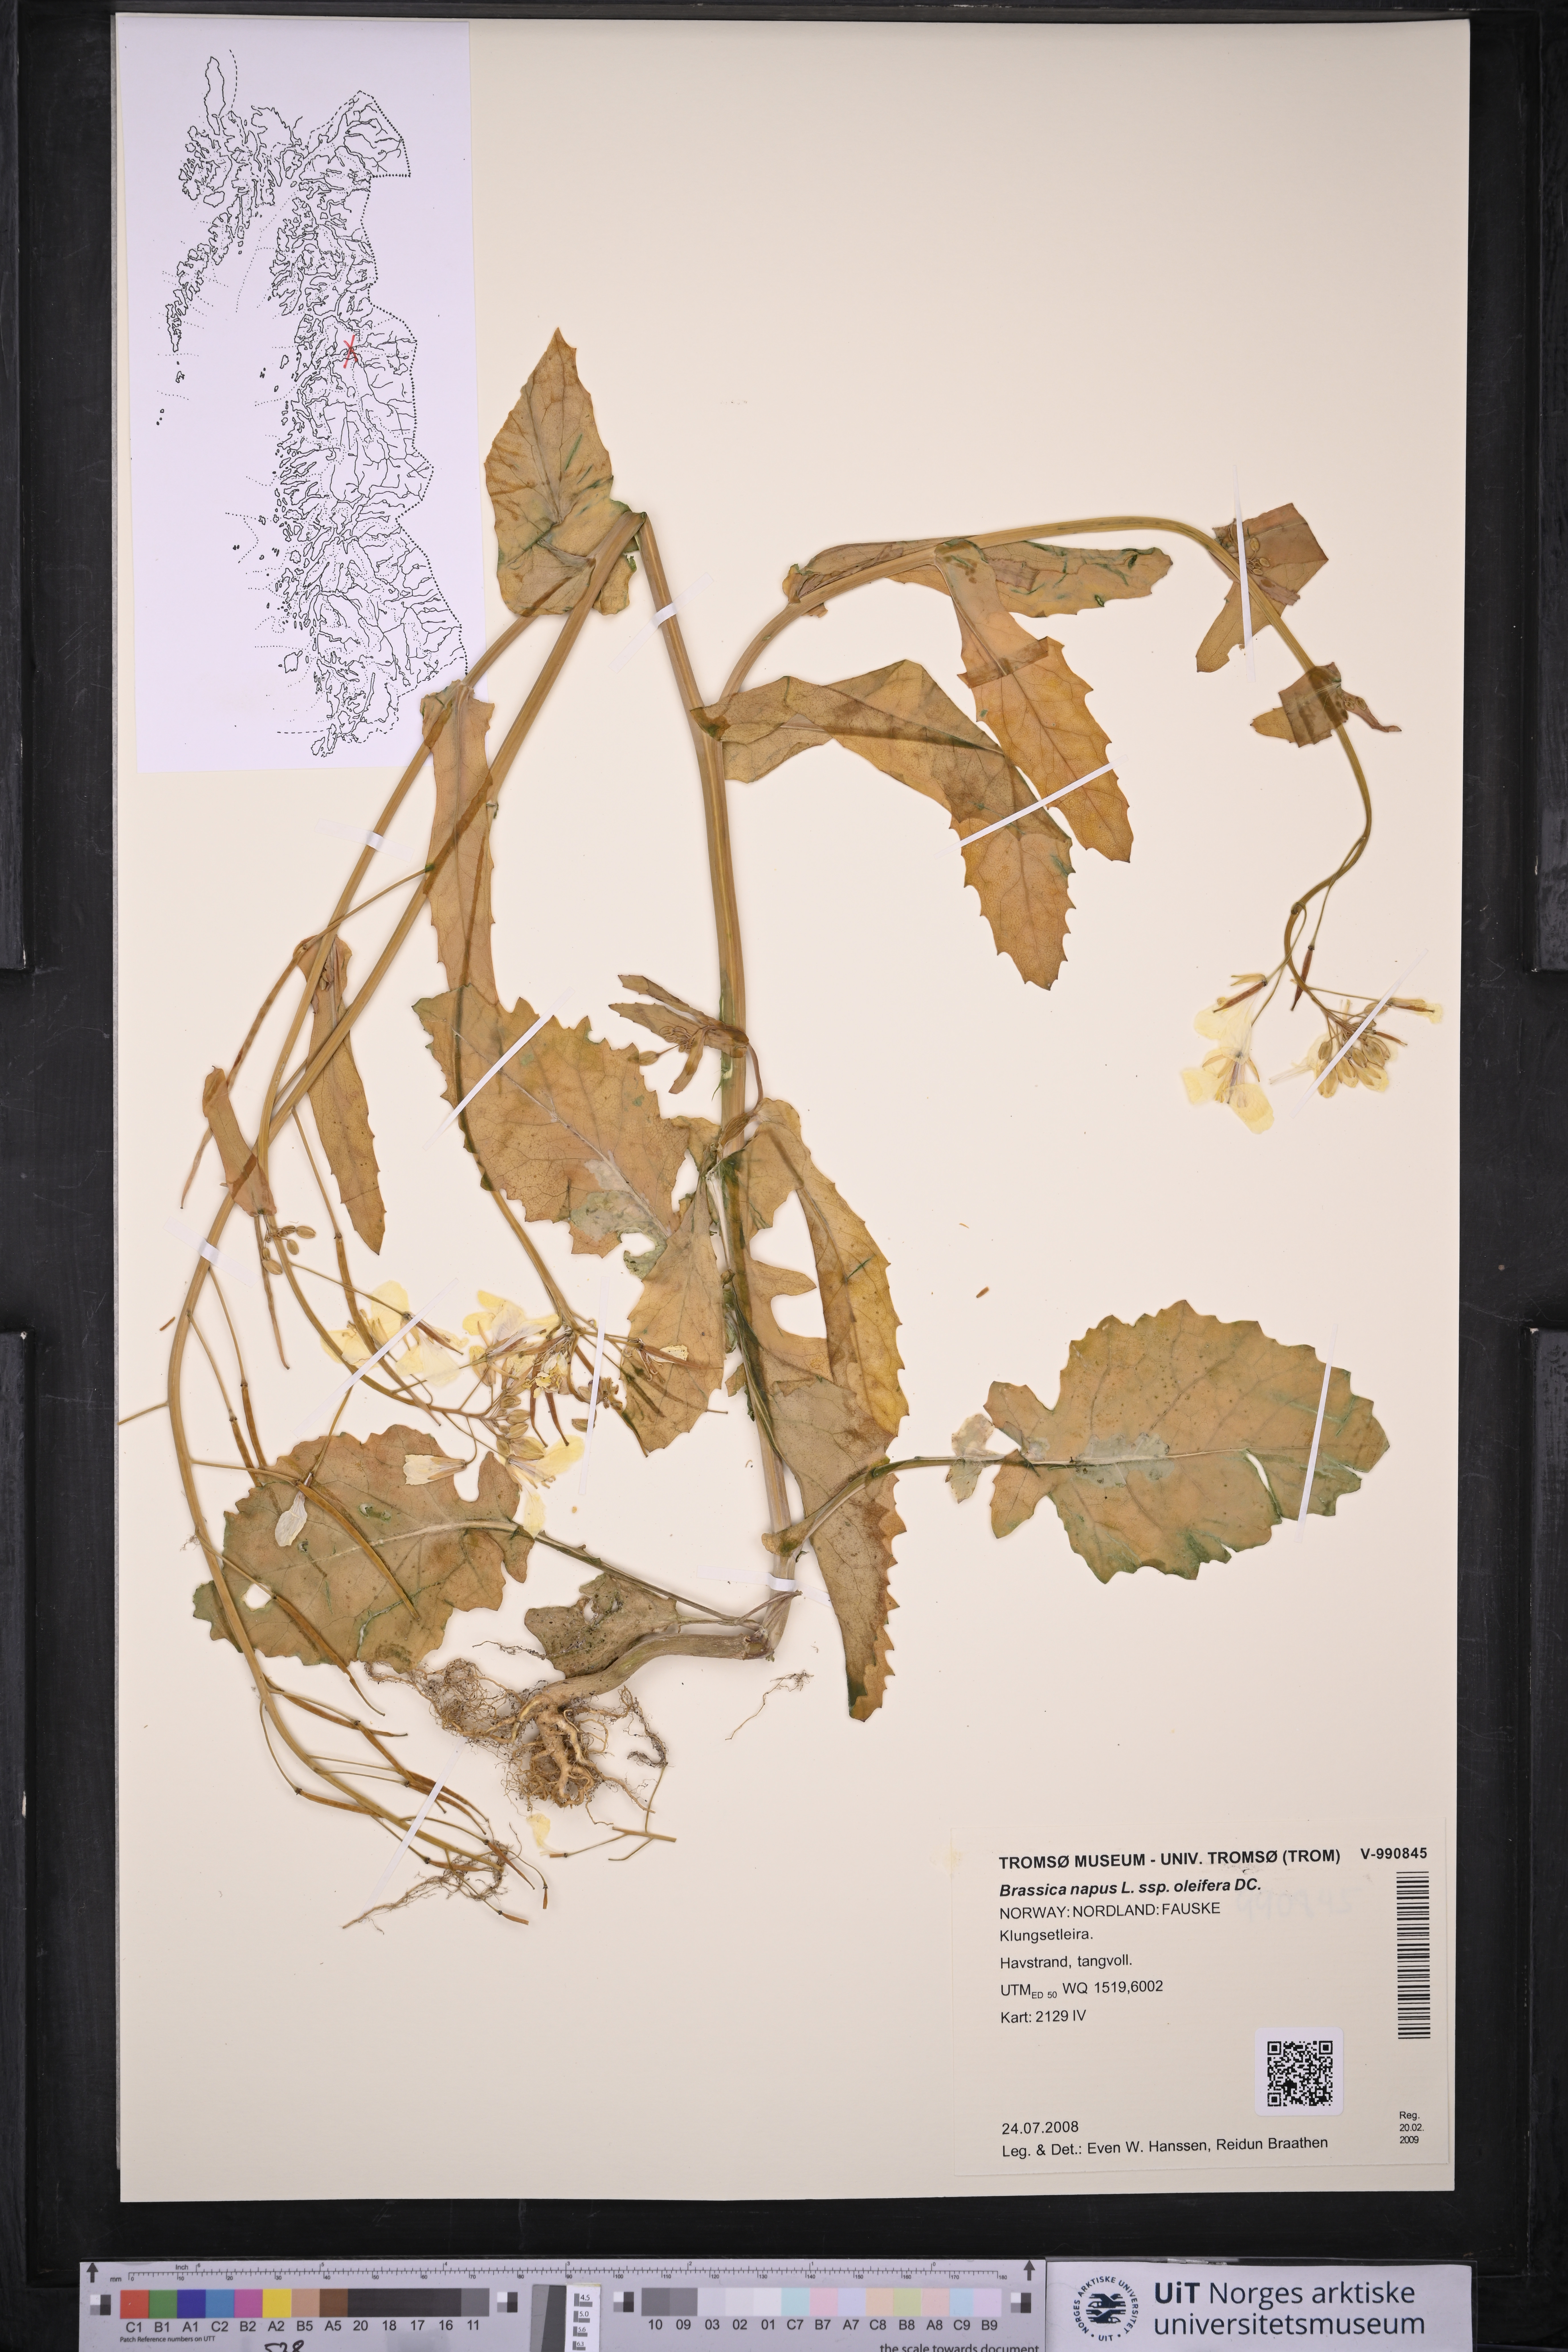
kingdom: Plantae
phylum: Tracheophyta
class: Magnoliopsida
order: Brassicales
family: Brassicaceae
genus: Brassica
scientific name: Brassica napus
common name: Rape
